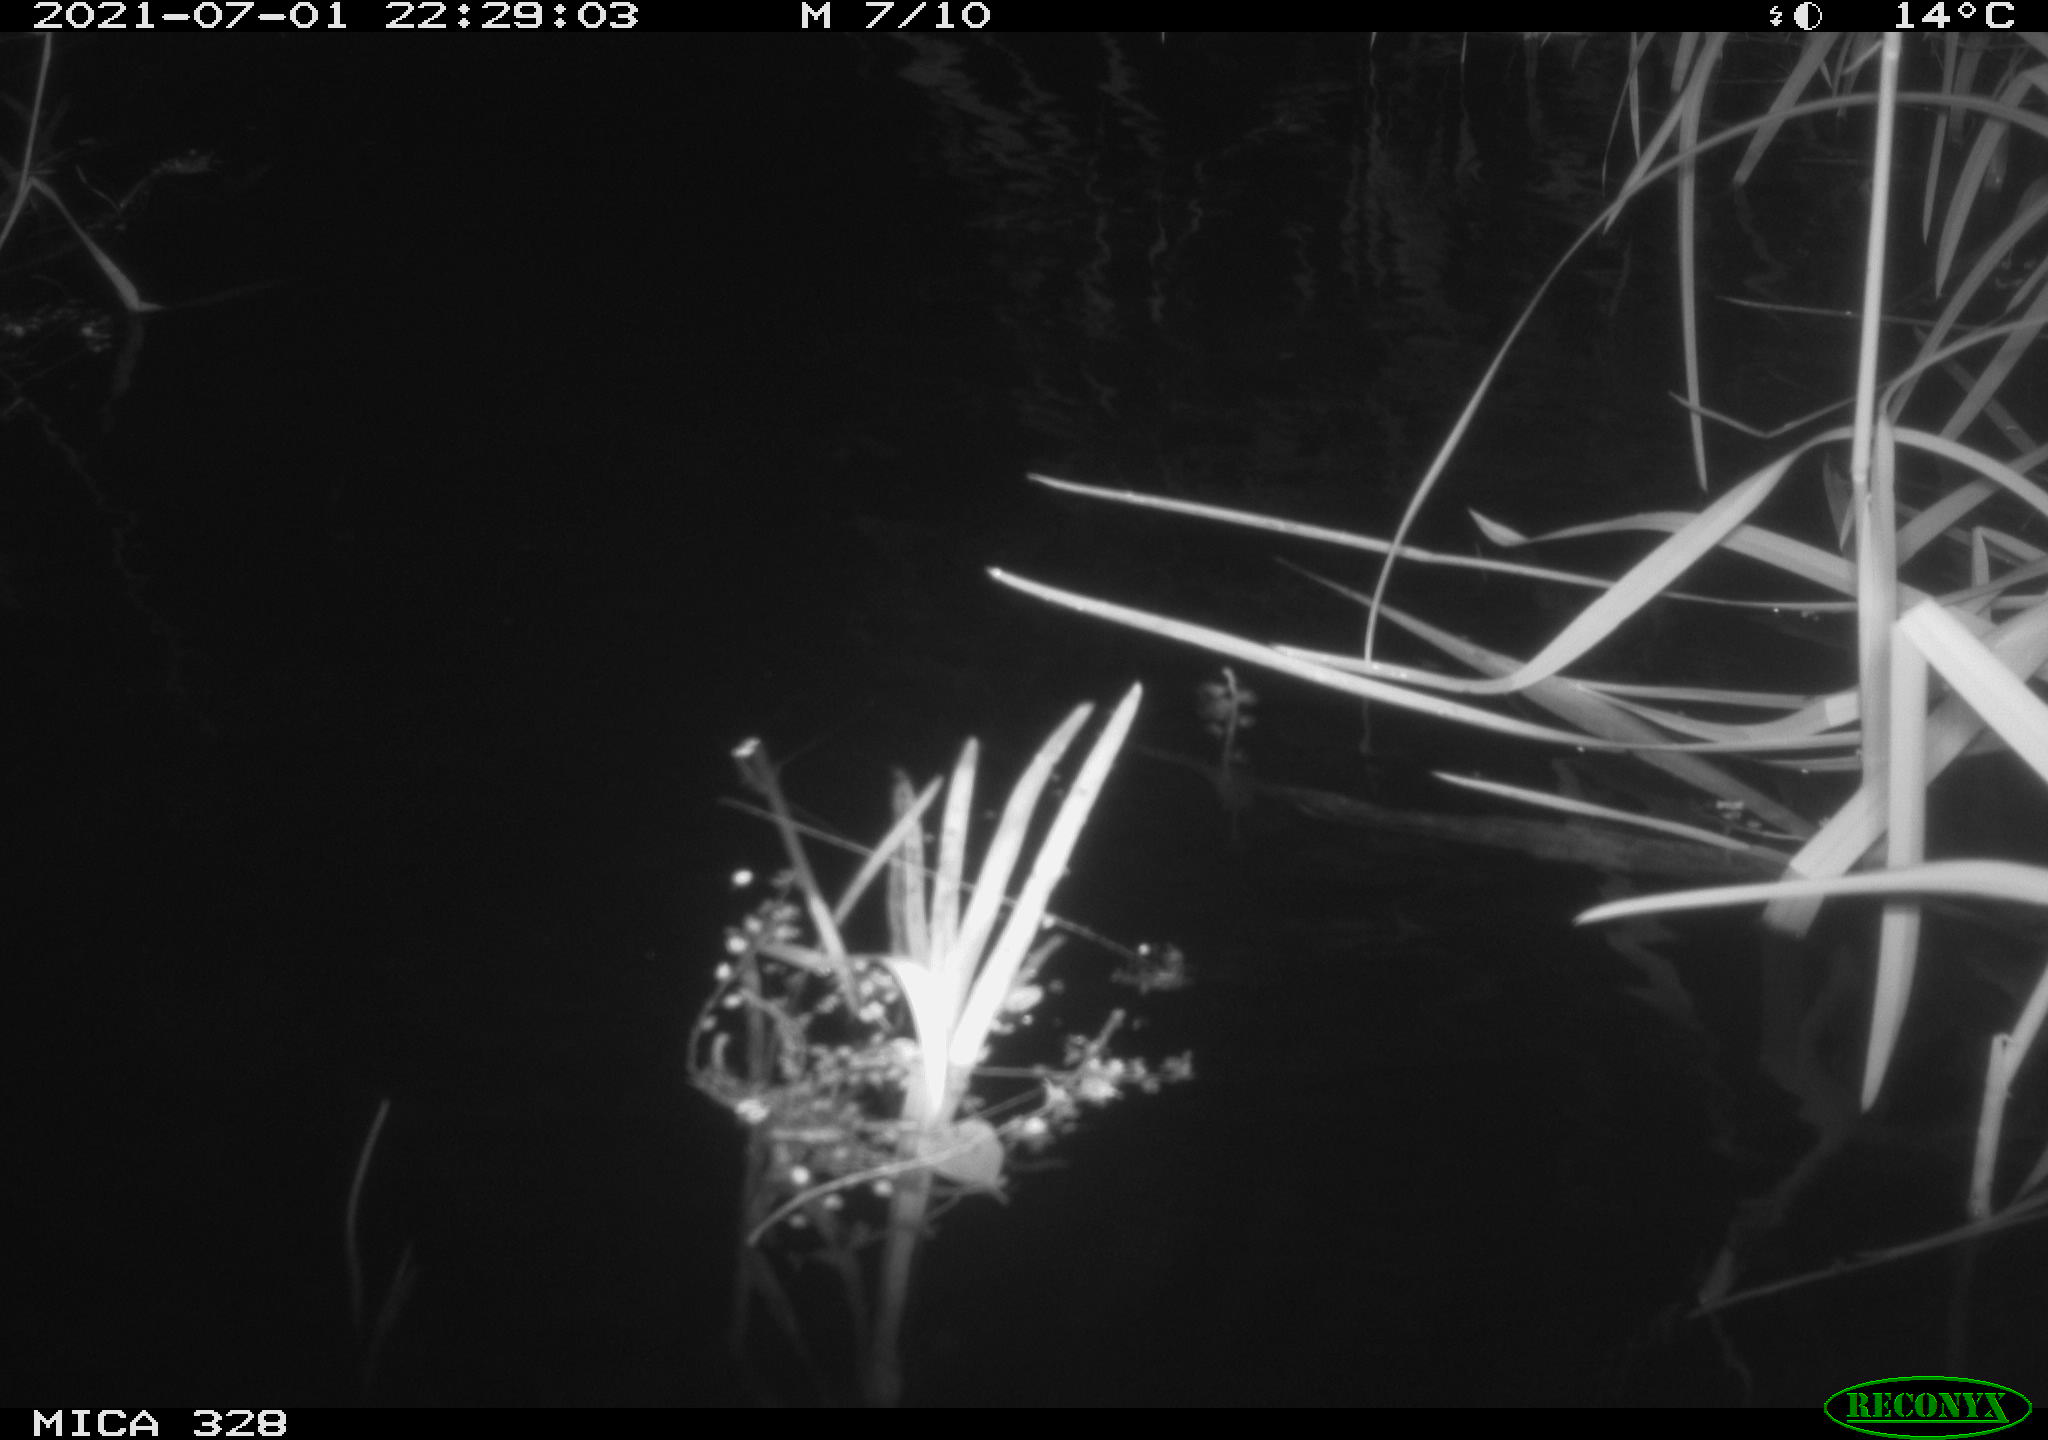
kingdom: Animalia
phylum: Chordata
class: Mammalia
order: Rodentia
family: Cricetidae
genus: Ondatra
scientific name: Ondatra zibethicus
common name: Muskrat
